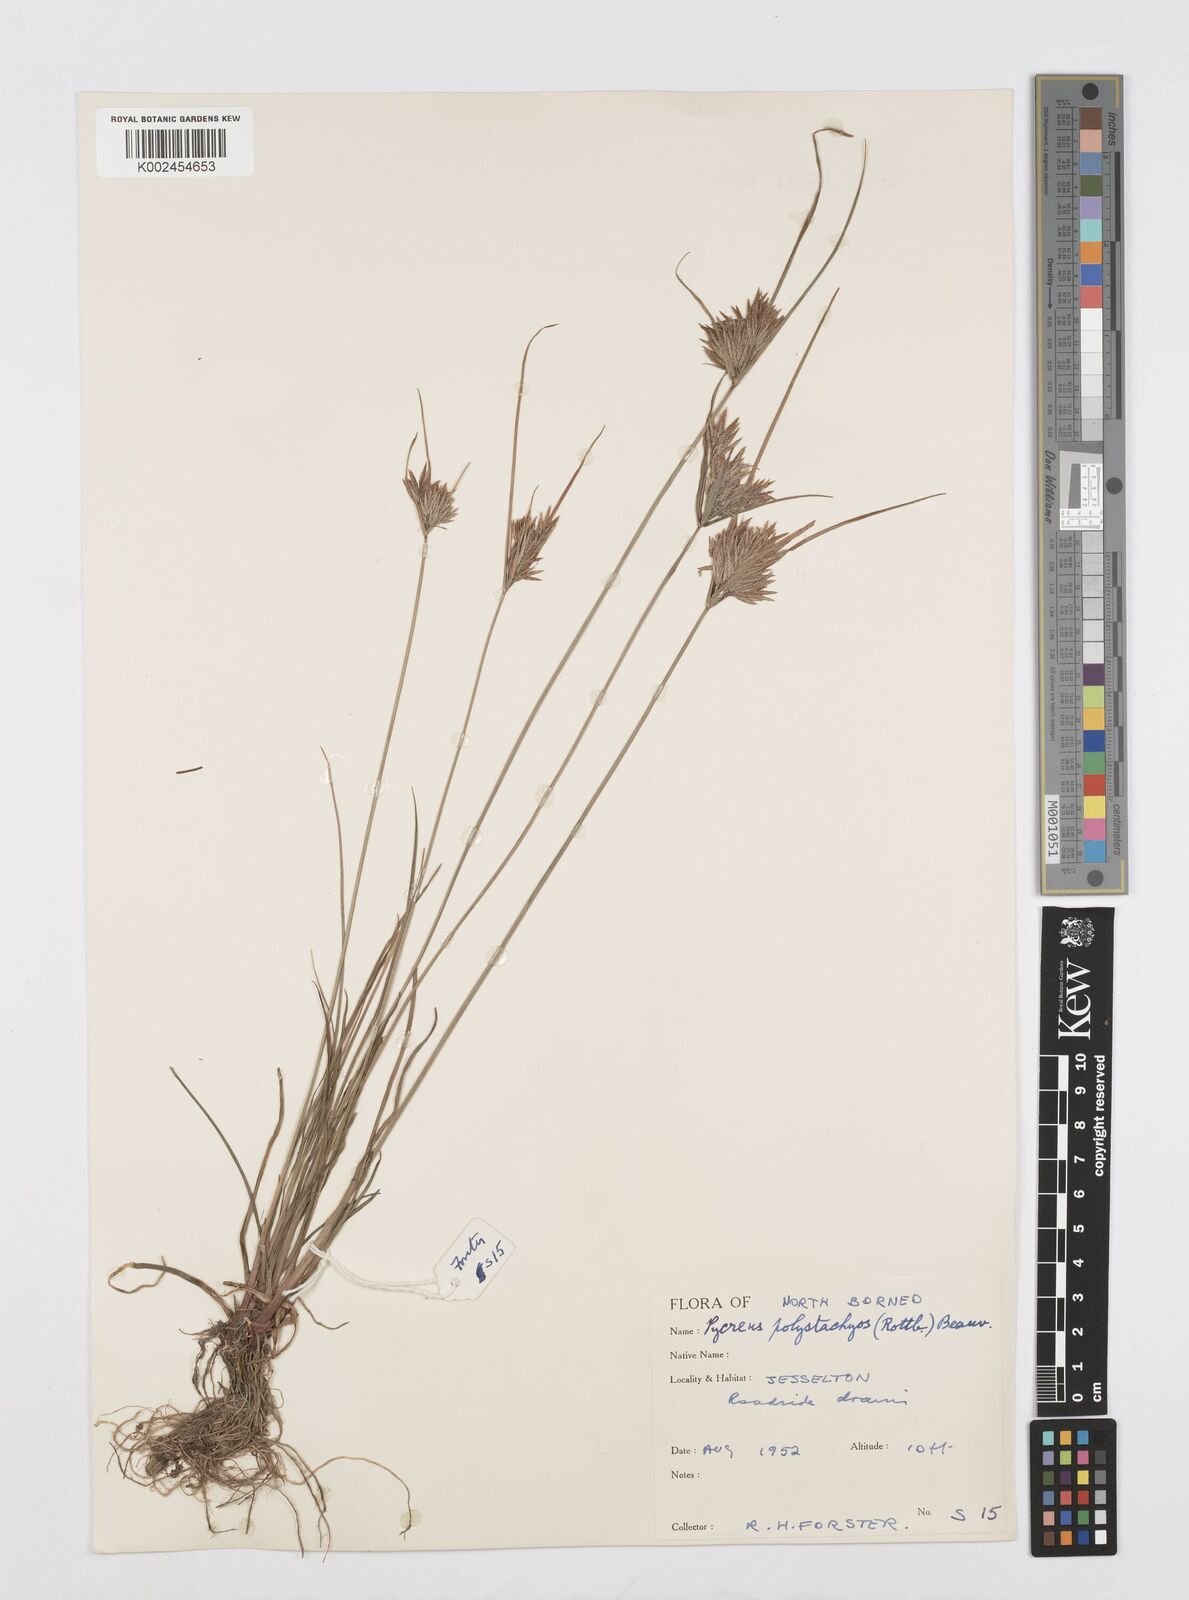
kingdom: Plantae
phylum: Tracheophyta
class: Liliopsida
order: Poales
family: Cyperaceae
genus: Cyperus
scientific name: Cyperus polystachyos
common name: Bunchy flat sedge
